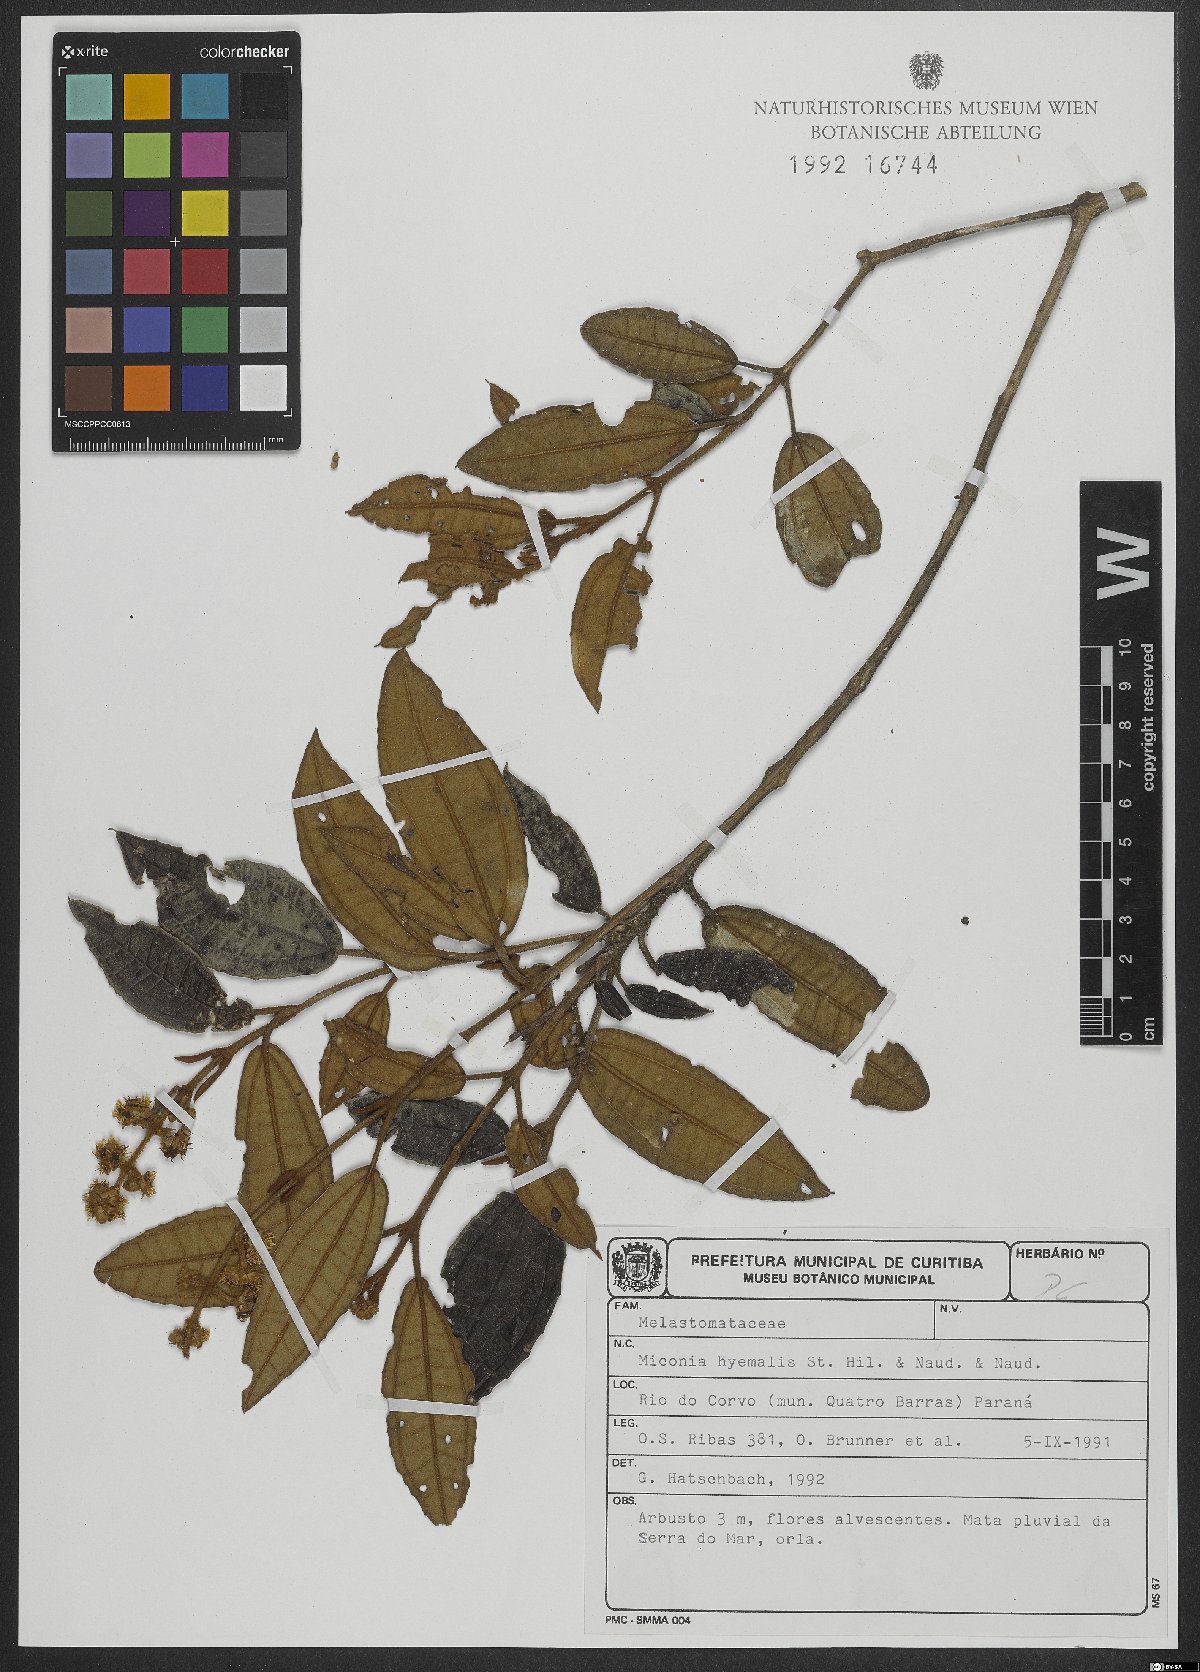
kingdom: Plantae
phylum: Tracheophyta
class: Magnoliopsida
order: Myrtales
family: Melastomataceae
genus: Miconia
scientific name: Miconia hyemalis
